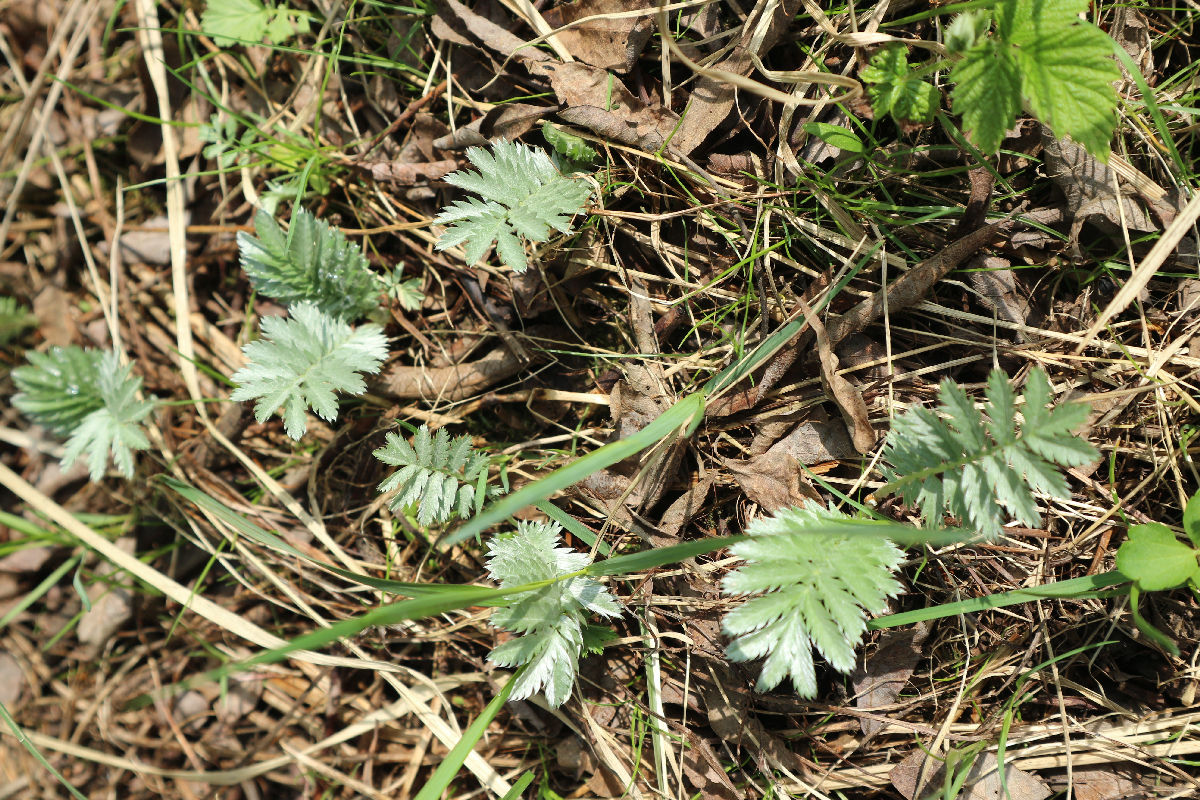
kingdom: Plantae
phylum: Tracheophyta
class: Magnoliopsida
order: Rosales
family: Rosaceae
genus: Argentina
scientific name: Argentina anserina
